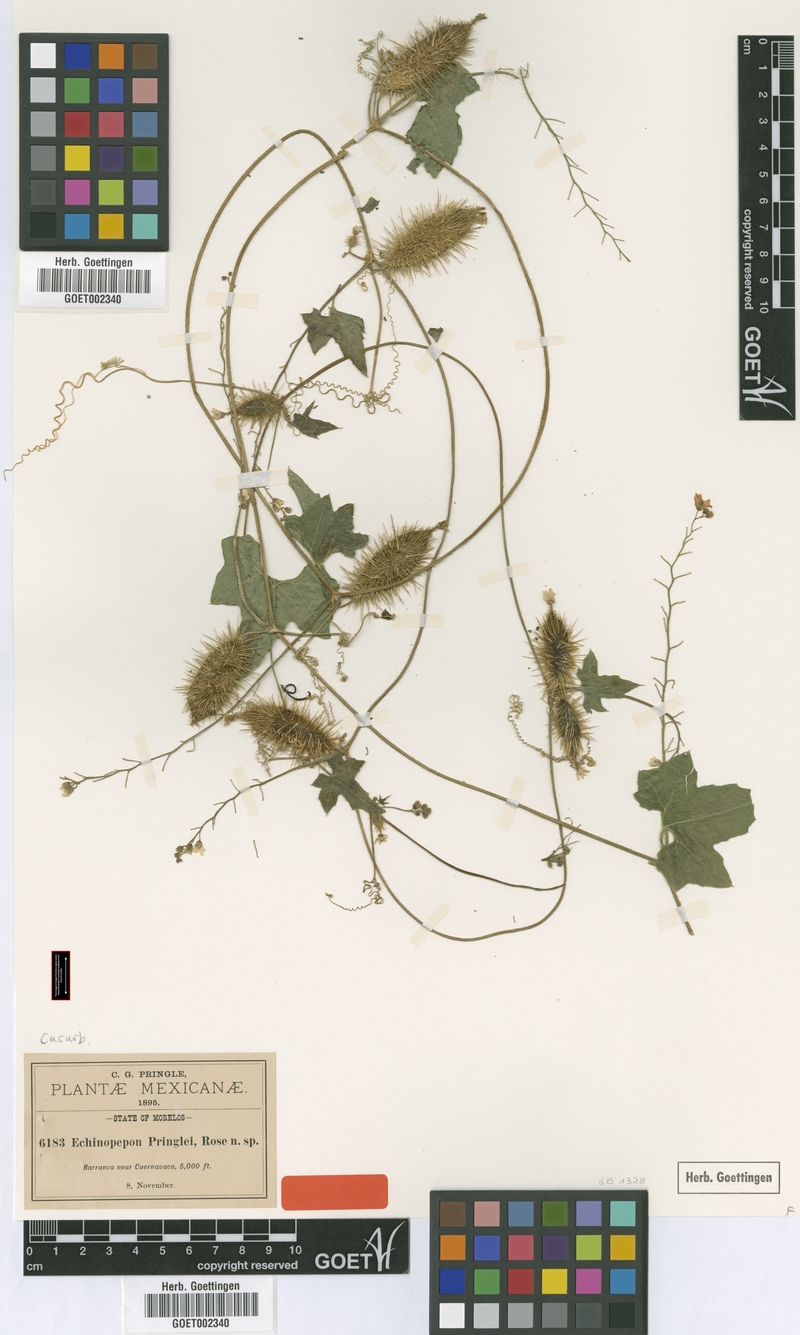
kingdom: Plantae
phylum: Tracheophyta
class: Magnoliopsida
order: Cucurbitales
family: Cucurbitaceae
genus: Echinopepon
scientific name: Echinopepon racemosus
